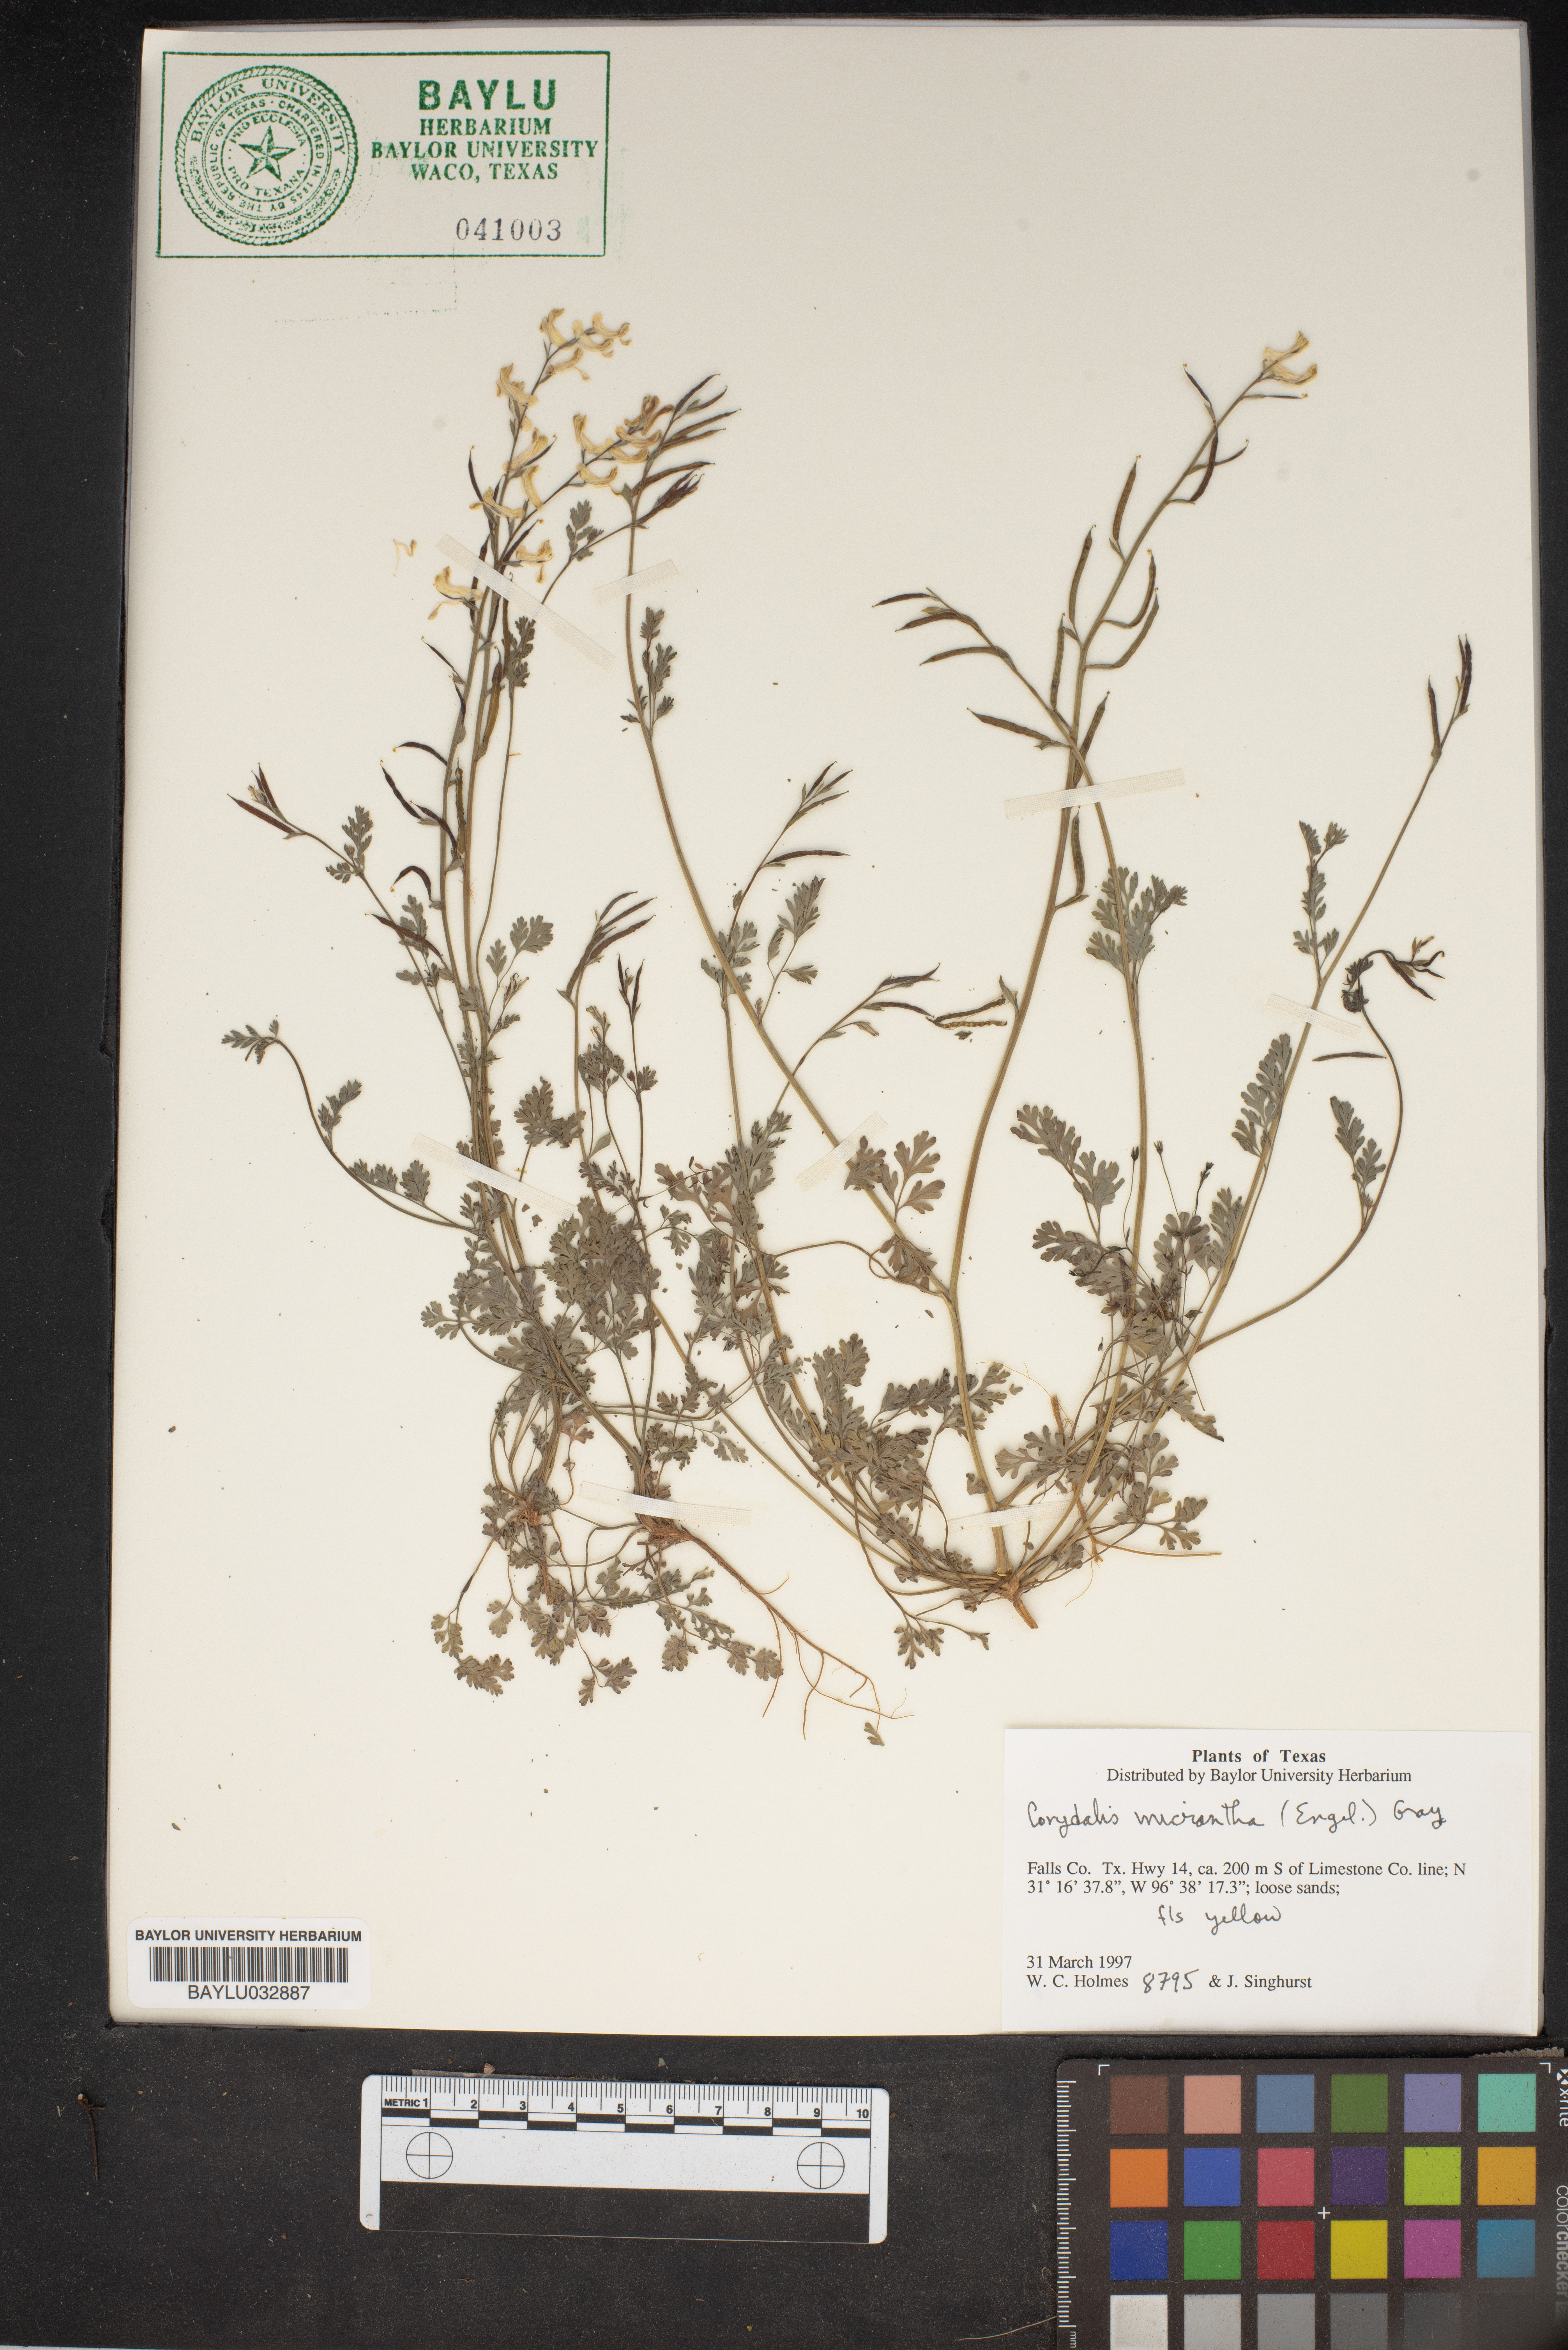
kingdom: Plantae
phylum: Tracheophyta
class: Magnoliopsida
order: Ranunculales
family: Papaveraceae
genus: Corydalis
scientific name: Corydalis micrantha
